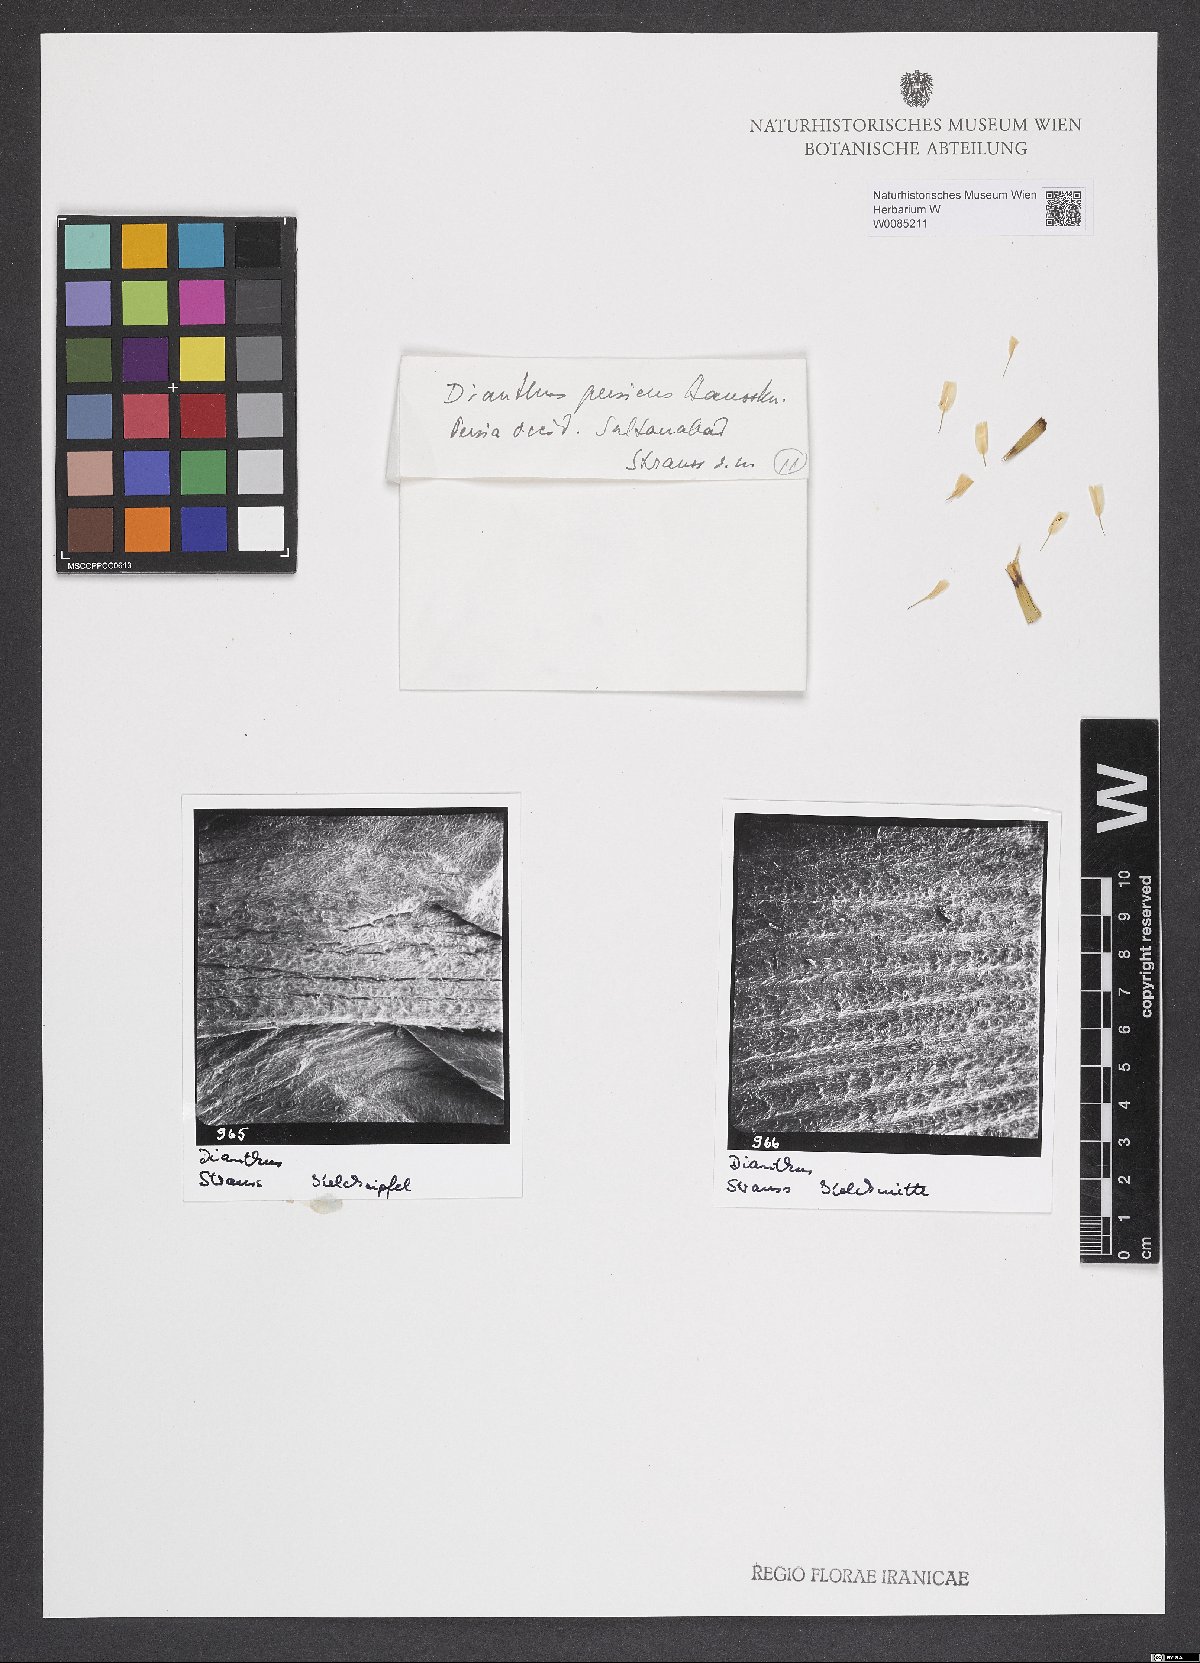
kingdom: Plantae
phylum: Tracheophyta
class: Magnoliopsida
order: Caryophyllales
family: Caryophyllaceae
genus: Dianthus
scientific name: Dianthus persicus
